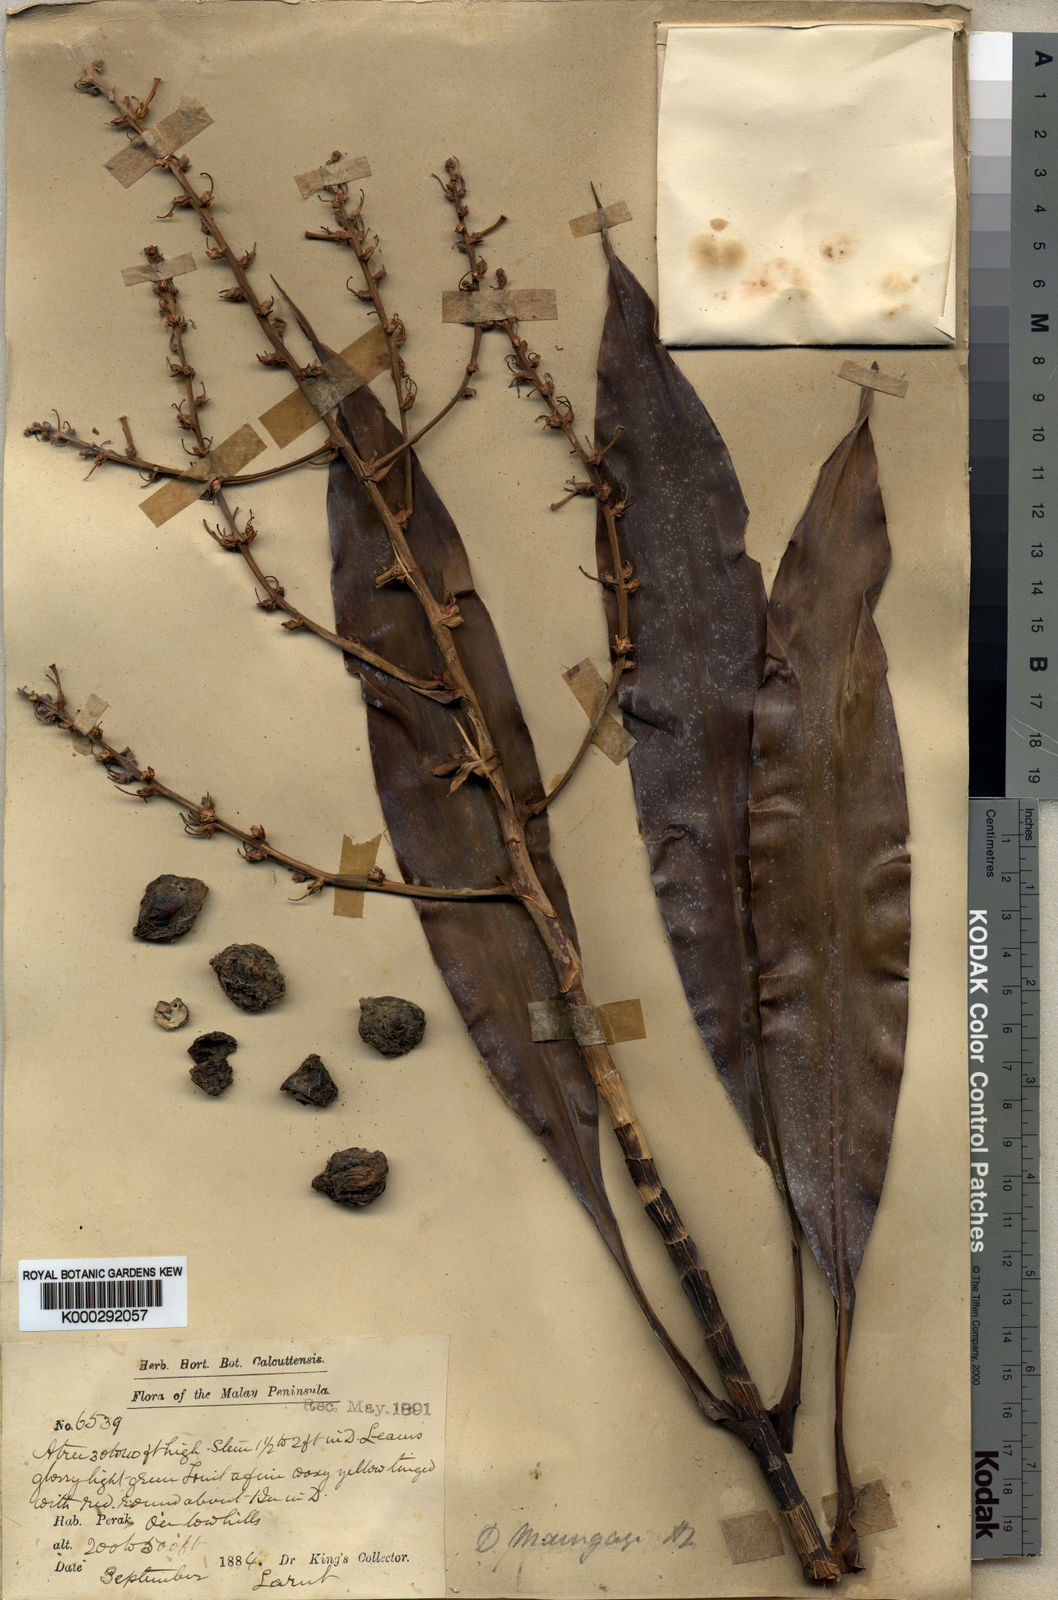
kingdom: Plantae
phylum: Tracheophyta
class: Liliopsida
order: Asparagales
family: Asparagaceae
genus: Dracaena
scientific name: Dracaena maingayi
